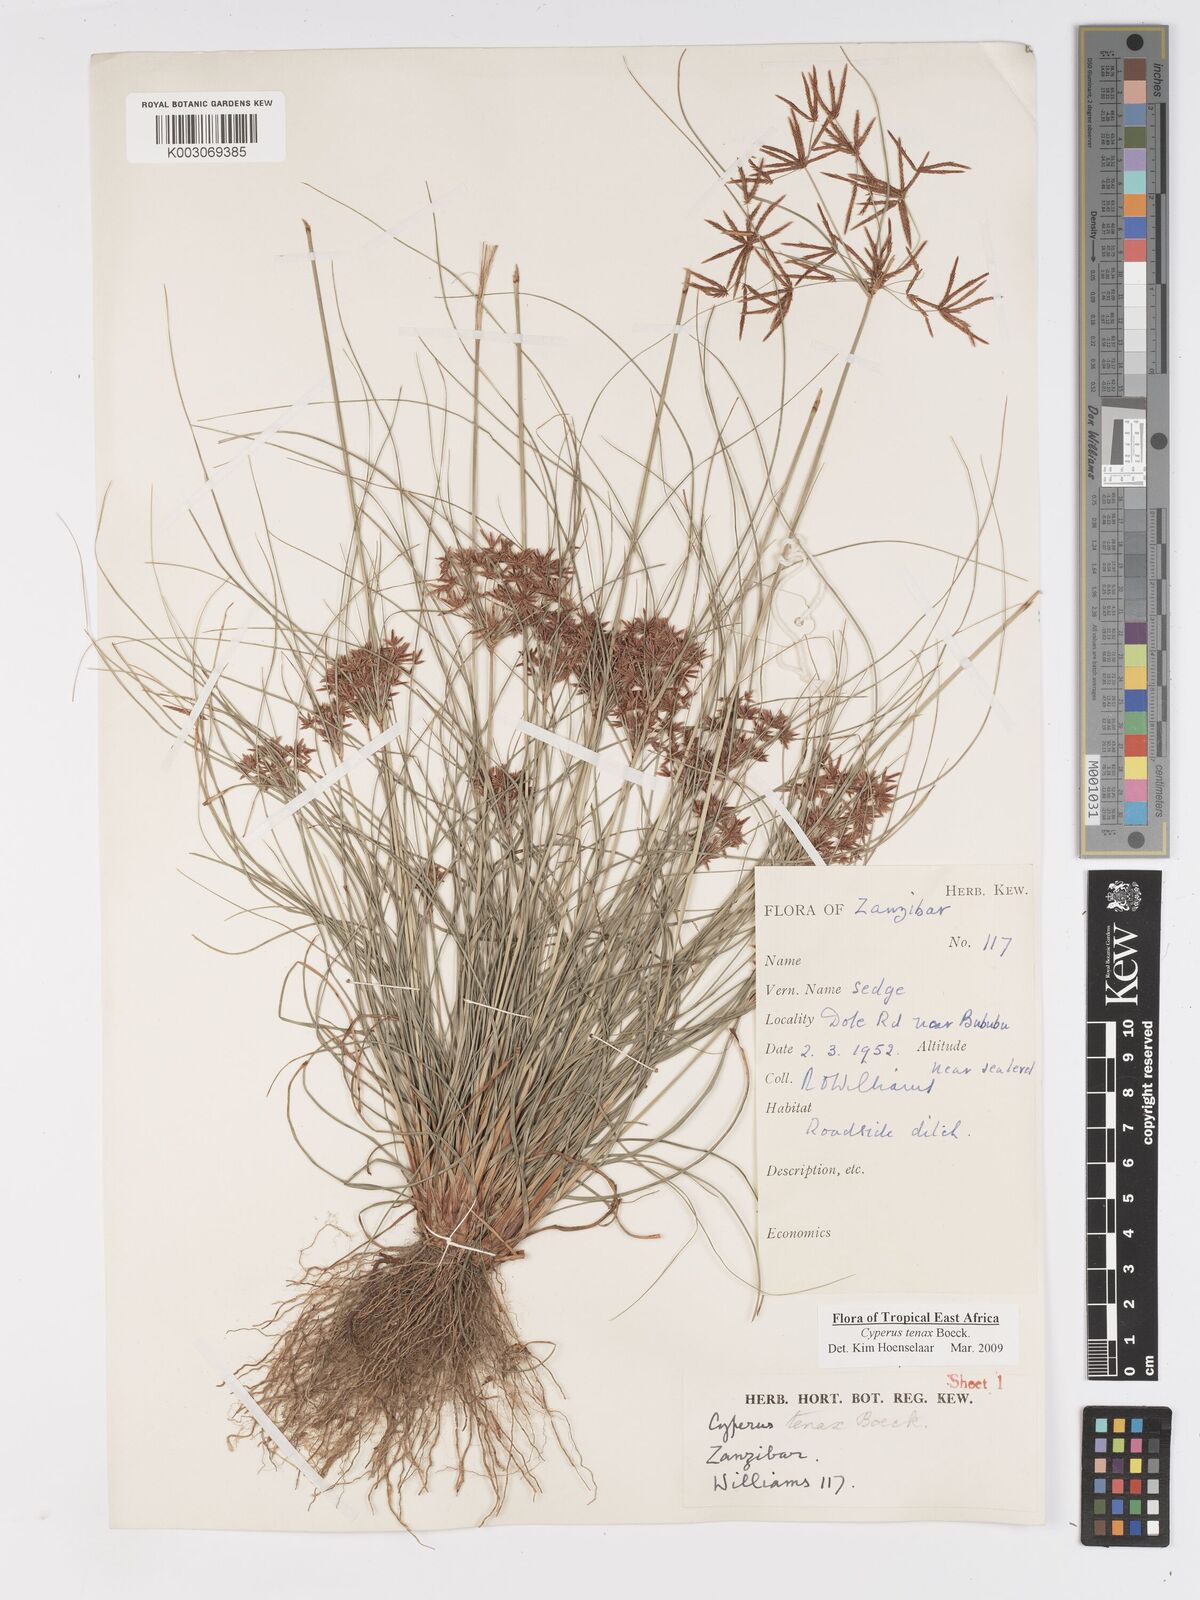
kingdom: Plantae
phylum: Tracheophyta
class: Liliopsida
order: Poales
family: Cyperaceae
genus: Cyperus
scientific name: Cyperus tenax
